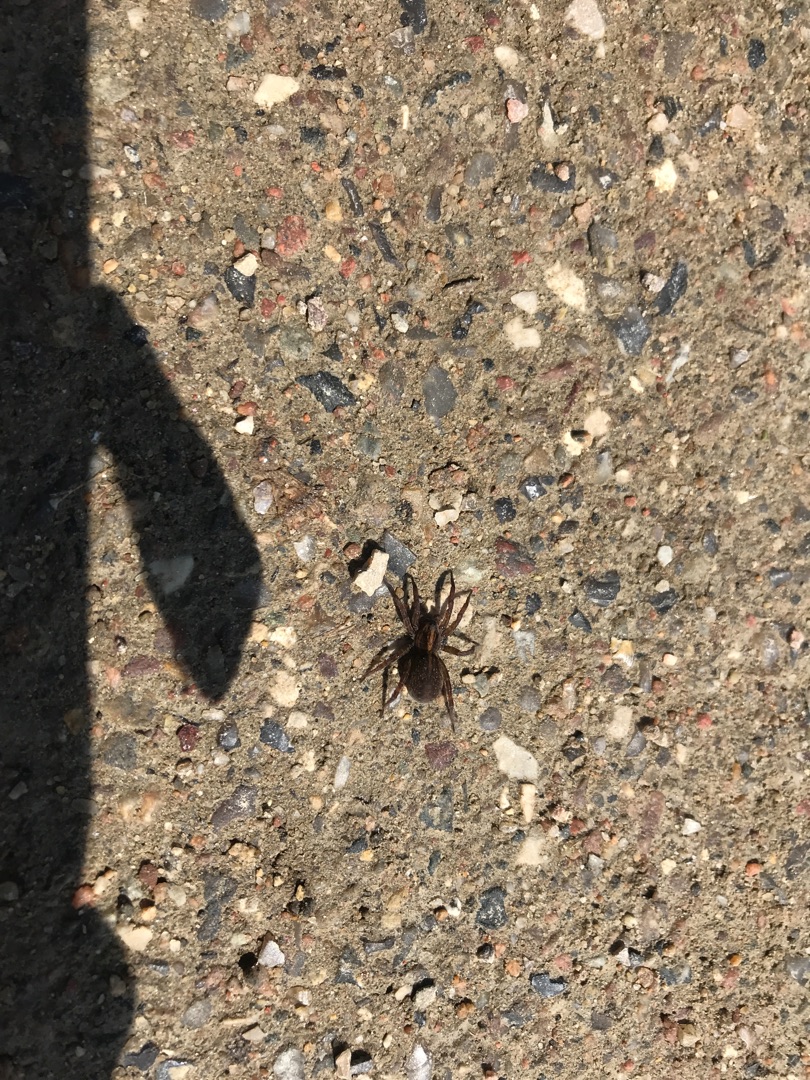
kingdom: Animalia
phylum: Arthropoda
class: Arachnida
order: Araneae
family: Lycosidae
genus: Trochosa
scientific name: Trochosa
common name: Bjørneedderkopslægten
